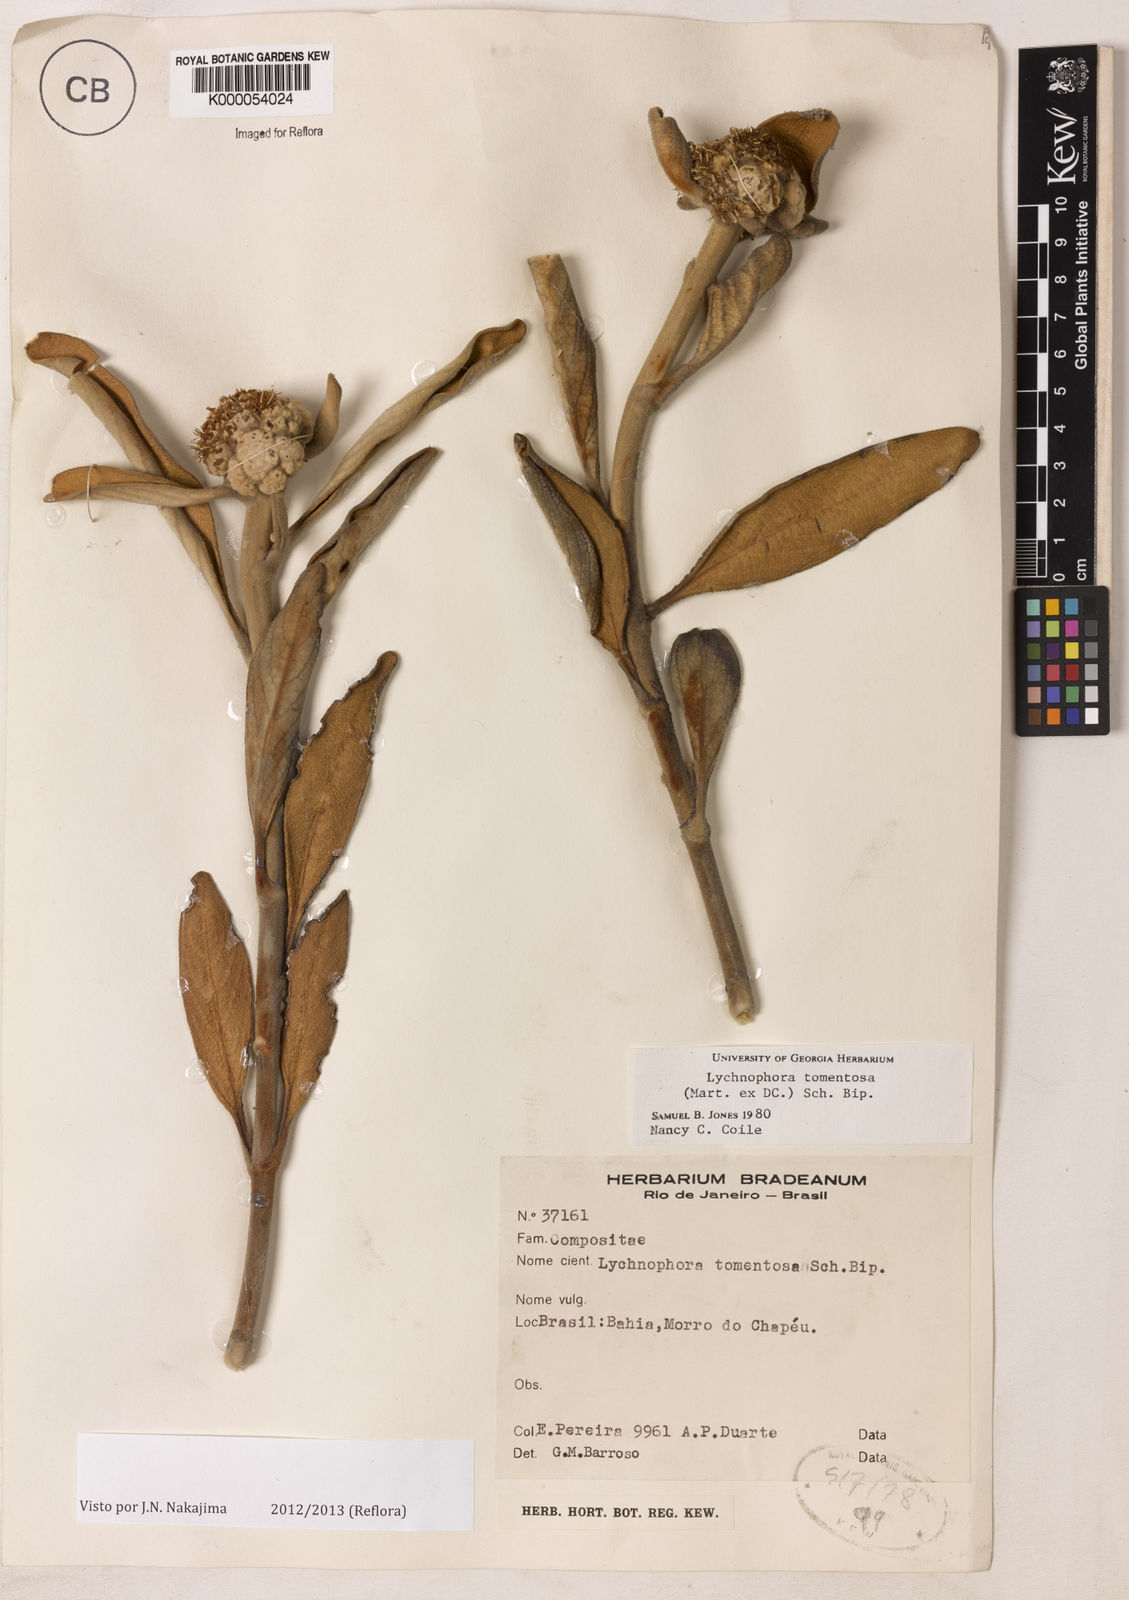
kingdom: Plantae
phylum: Tracheophyta
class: Magnoliopsida
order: Asterales
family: Asteraceae
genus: Lychnocephalus
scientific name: Lychnocephalus tomentosus
